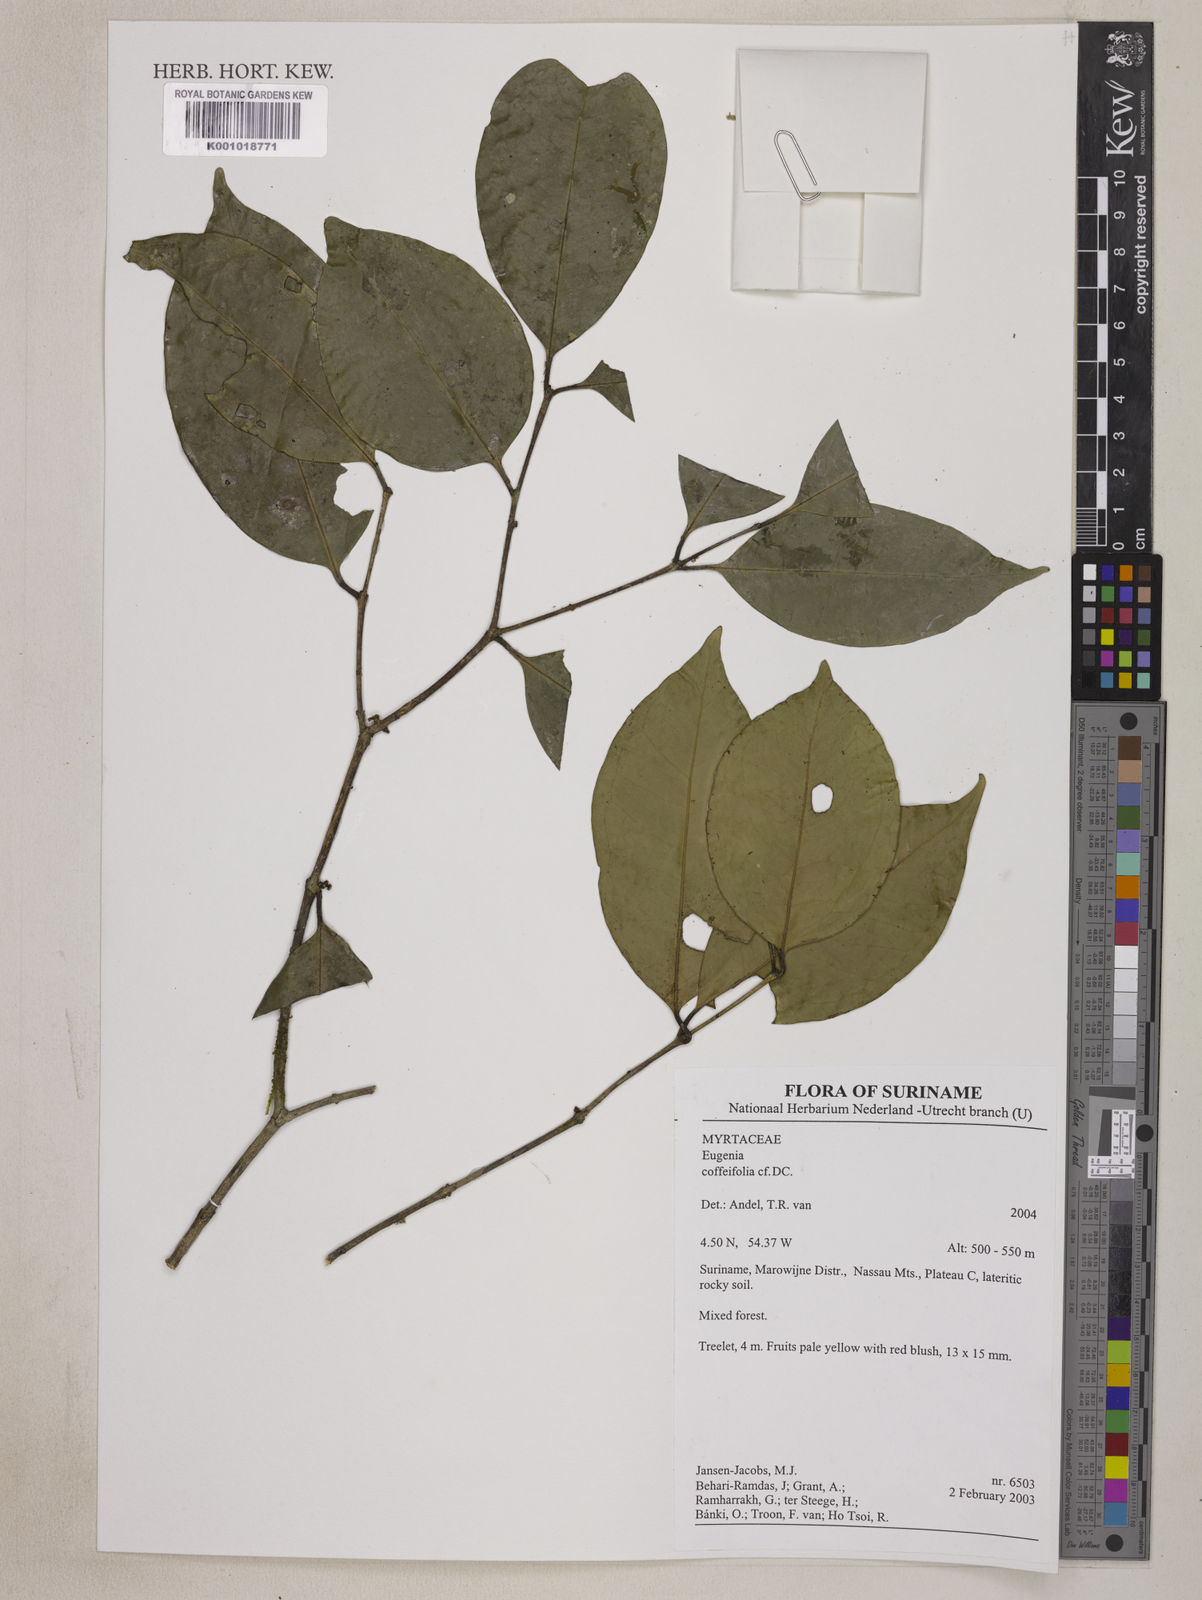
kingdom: Plantae
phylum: Tracheophyta
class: Magnoliopsida
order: Myrtales
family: Myrtaceae
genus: Eugenia
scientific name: Eugenia coffeifolia
